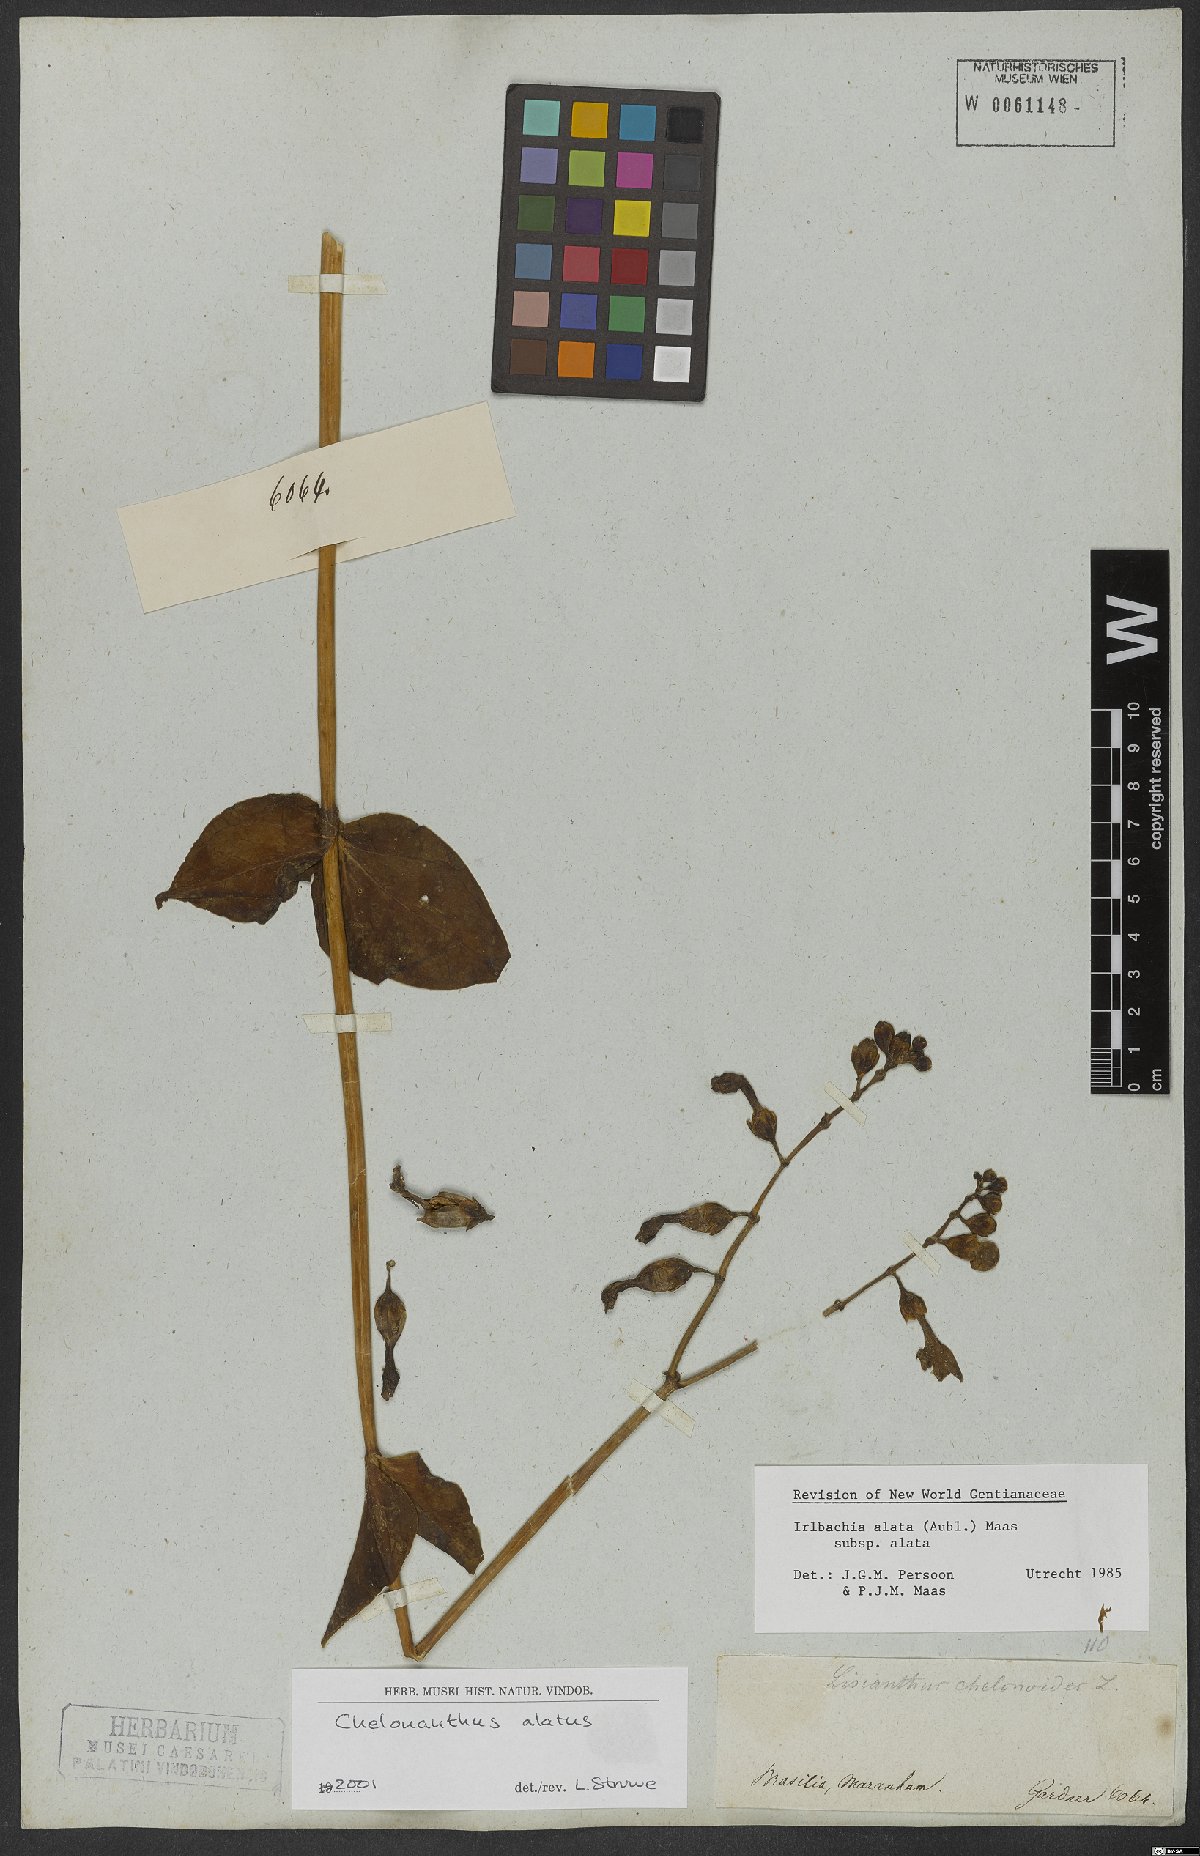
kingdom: Plantae
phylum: Tracheophyta
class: Magnoliopsida
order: Gentianales
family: Gentianaceae
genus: Chelonanthus
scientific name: Chelonanthus alatus
